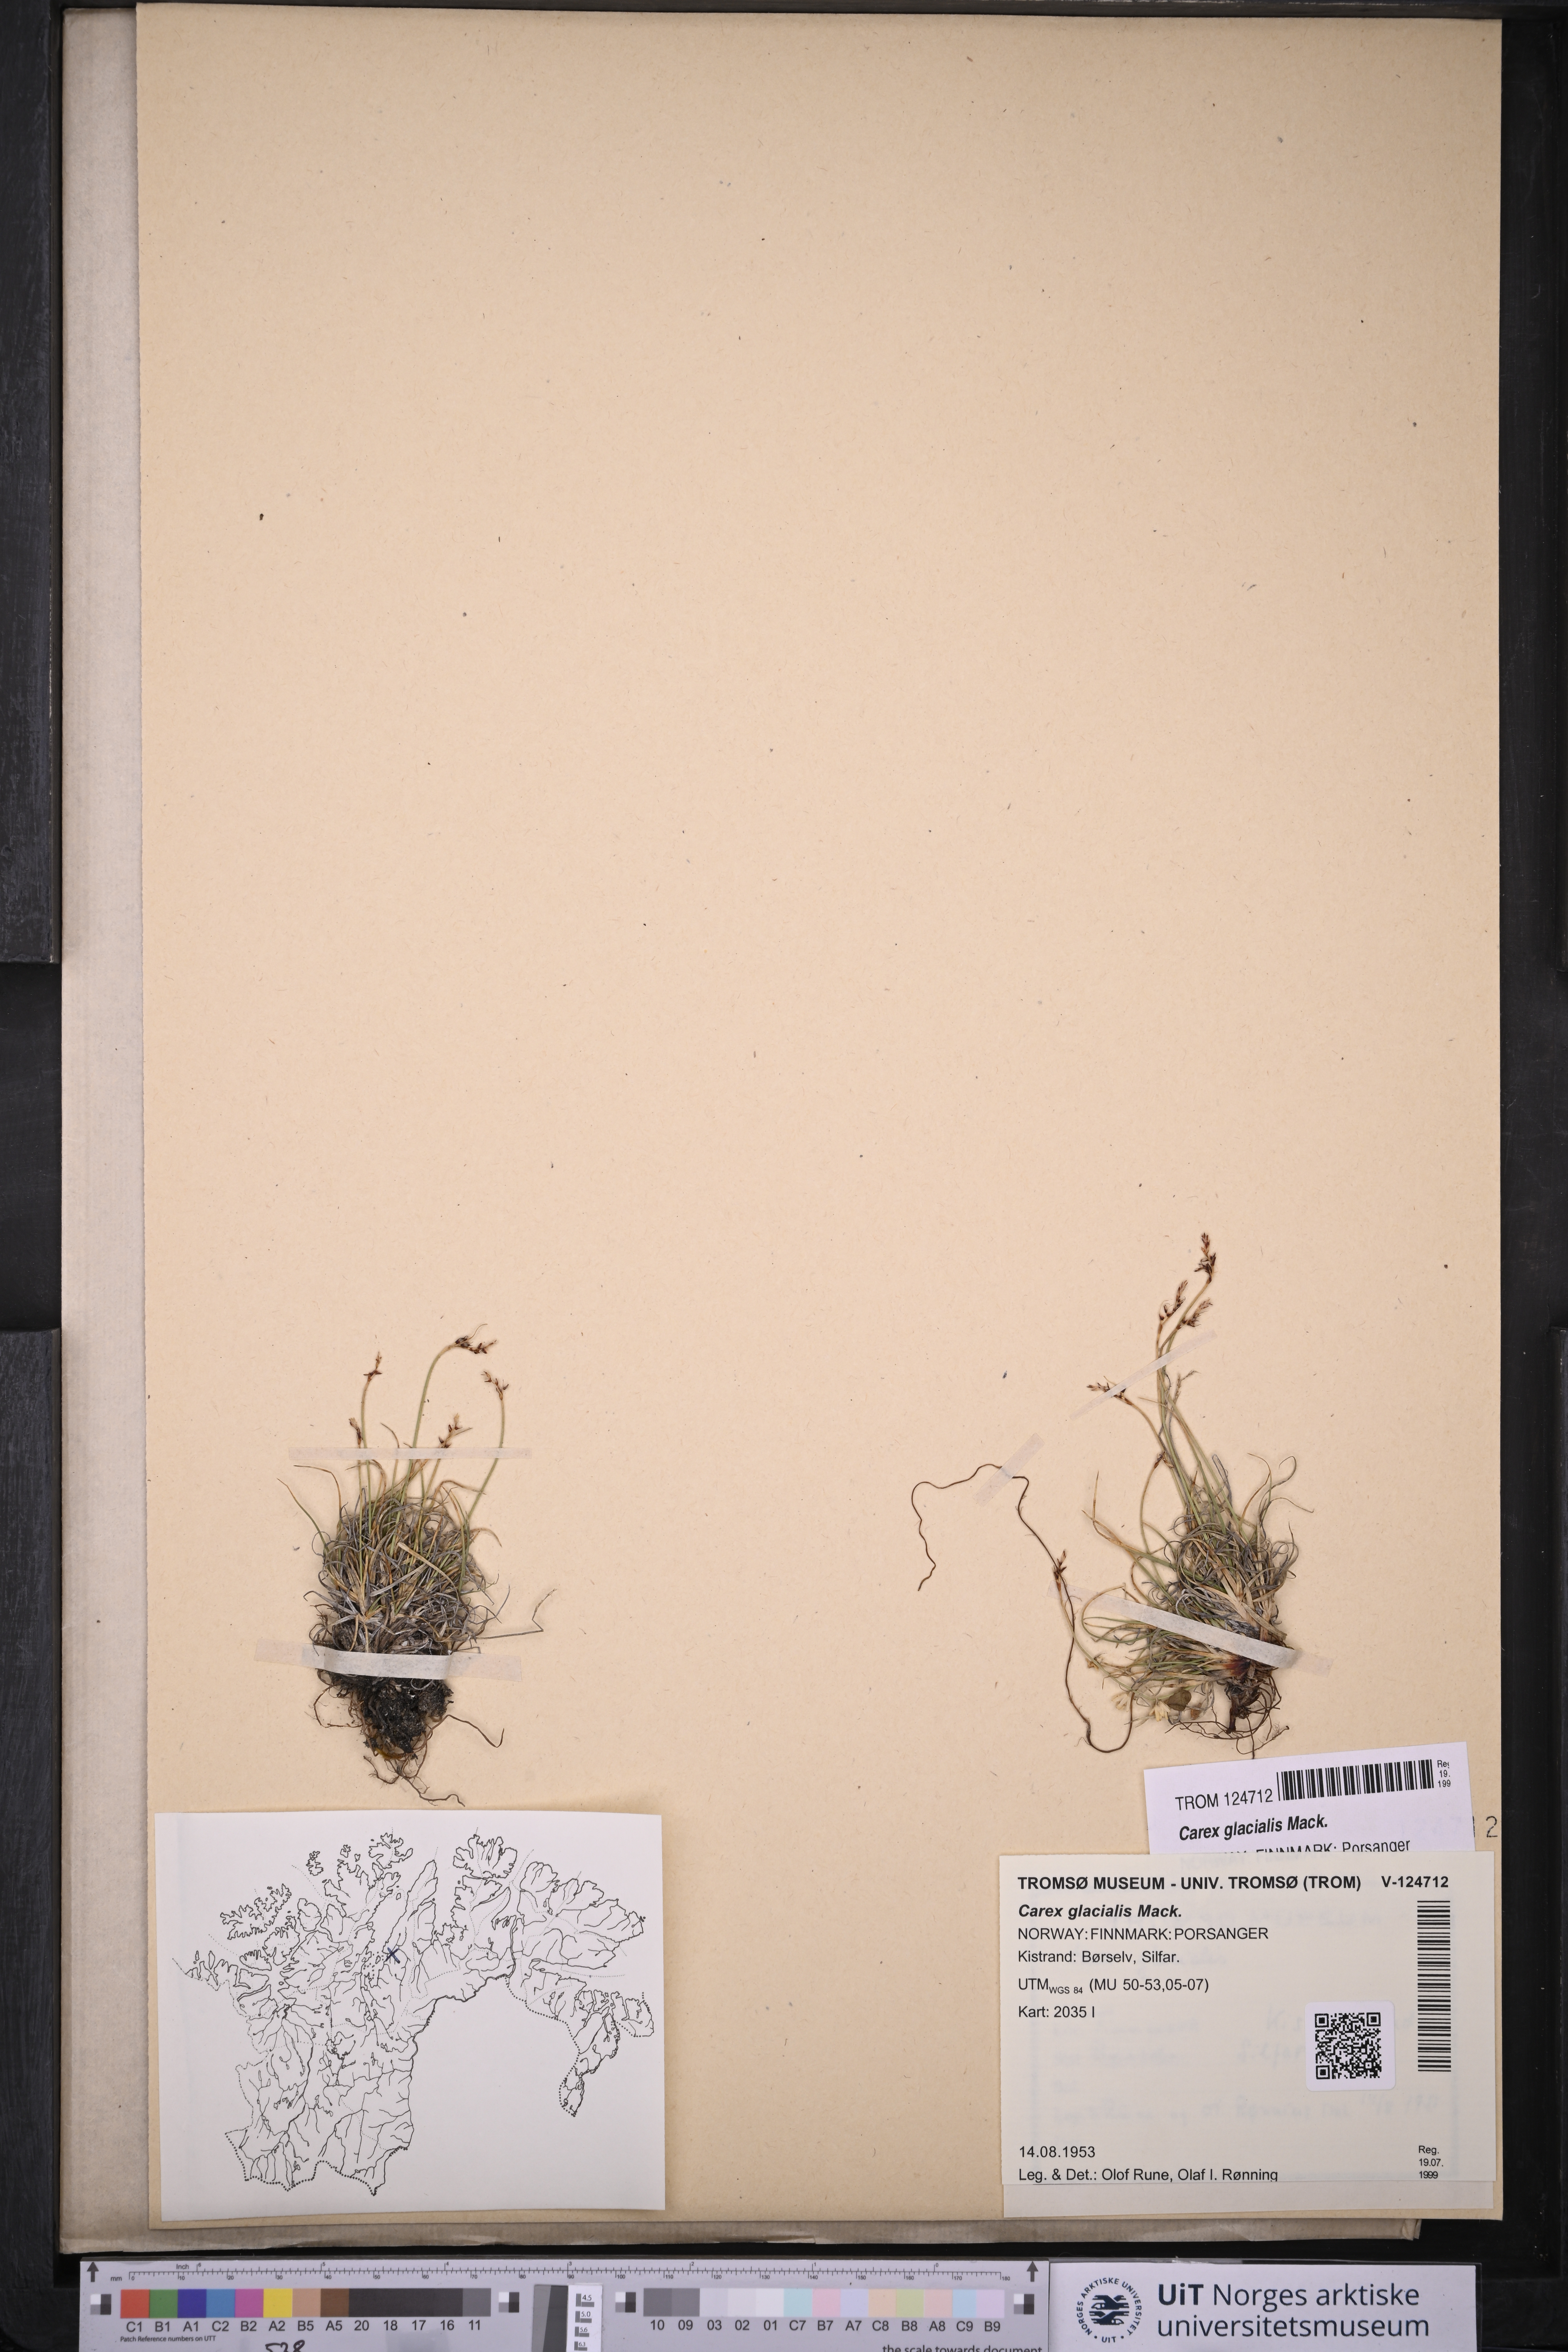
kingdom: Plantae
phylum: Tracheophyta
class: Liliopsida
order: Poales
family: Cyperaceae
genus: Carex
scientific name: Carex glacialis
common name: Newfoundland sedge
